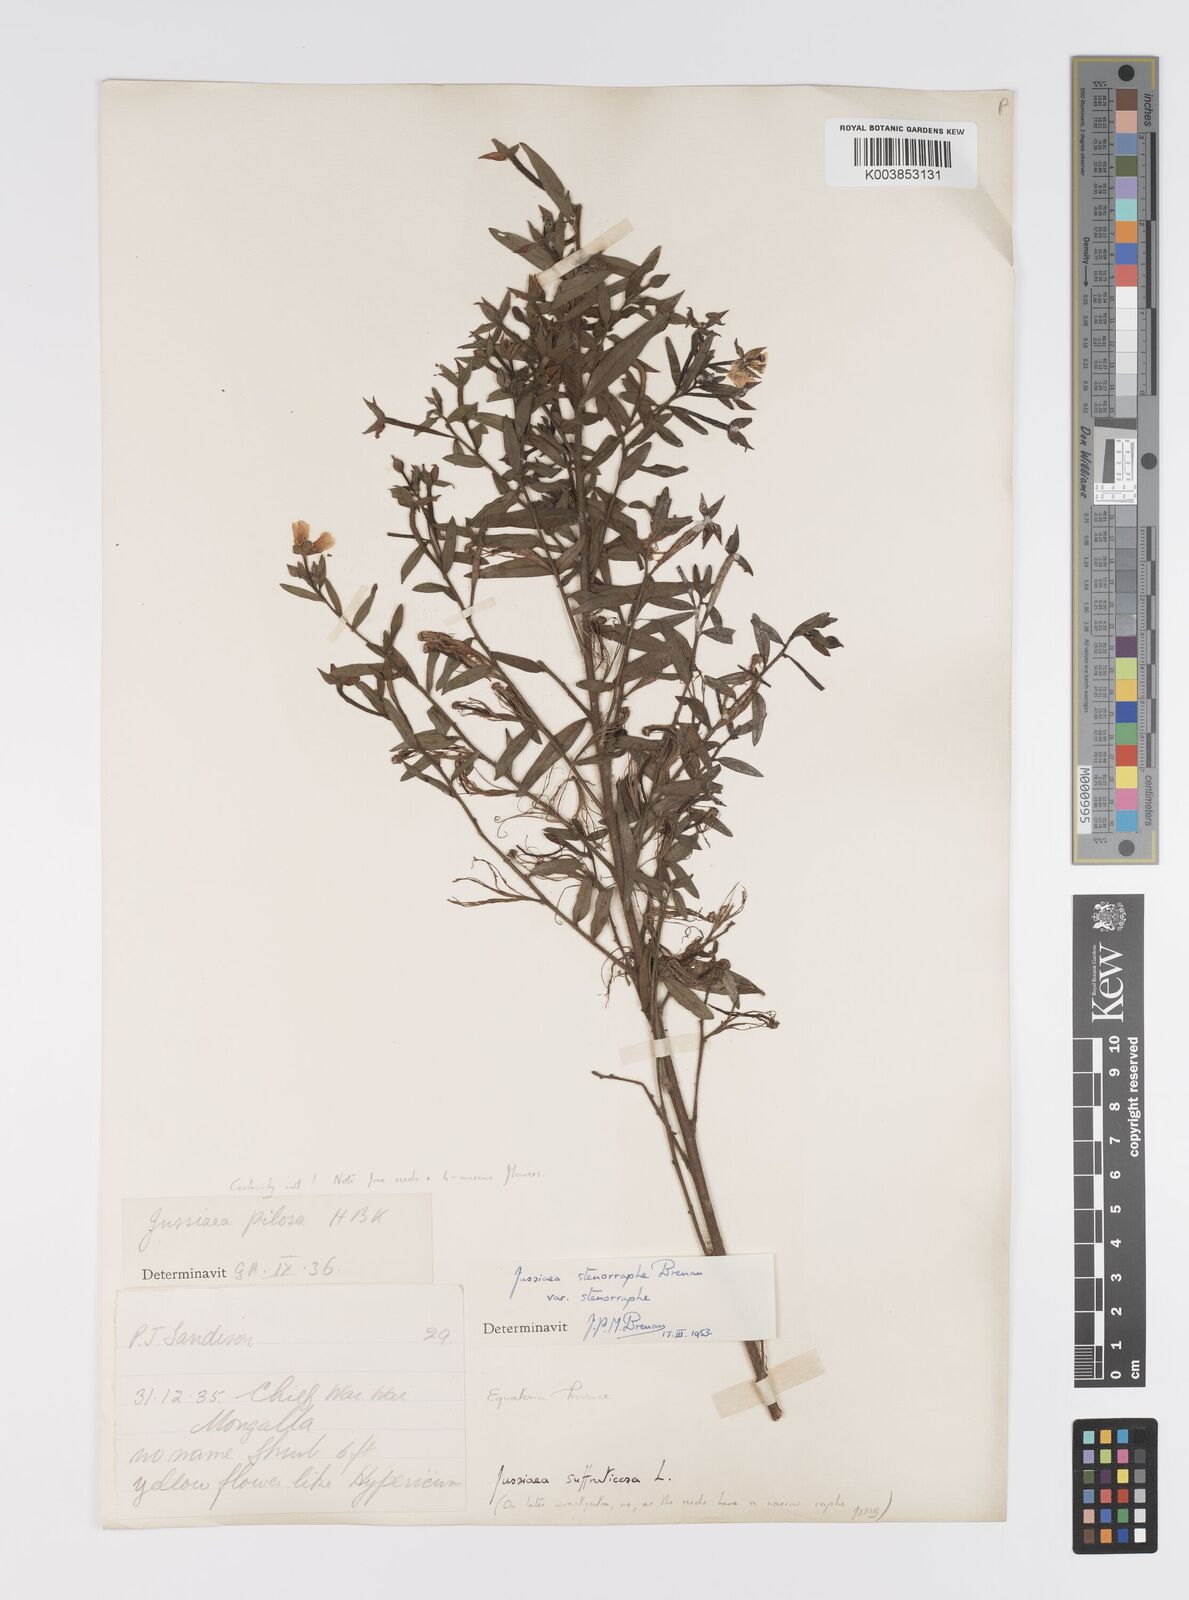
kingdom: Plantae
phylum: Tracheophyta
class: Magnoliopsida
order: Myrtales
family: Onagraceae
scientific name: Onagraceae
